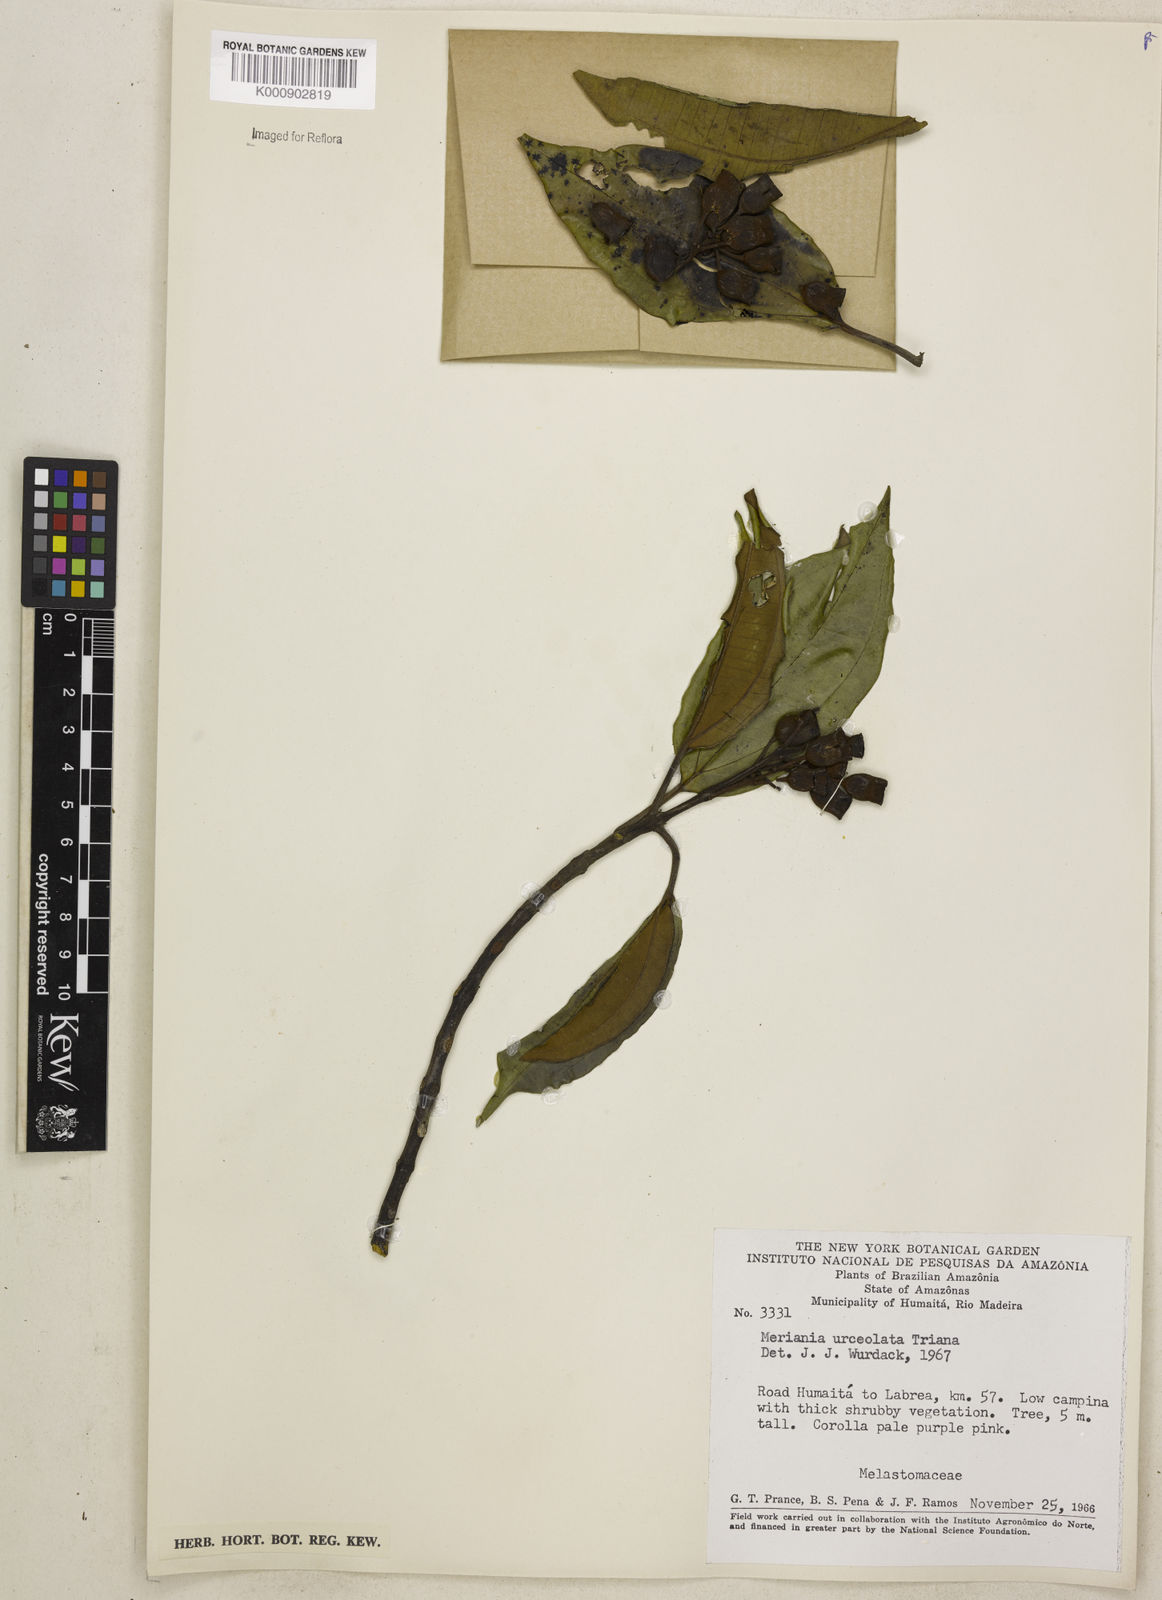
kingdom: Plantae
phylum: Tracheophyta
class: Magnoliopsida
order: Myrtales
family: Melastomataceae
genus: Meriania
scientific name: Meriania urceolata
